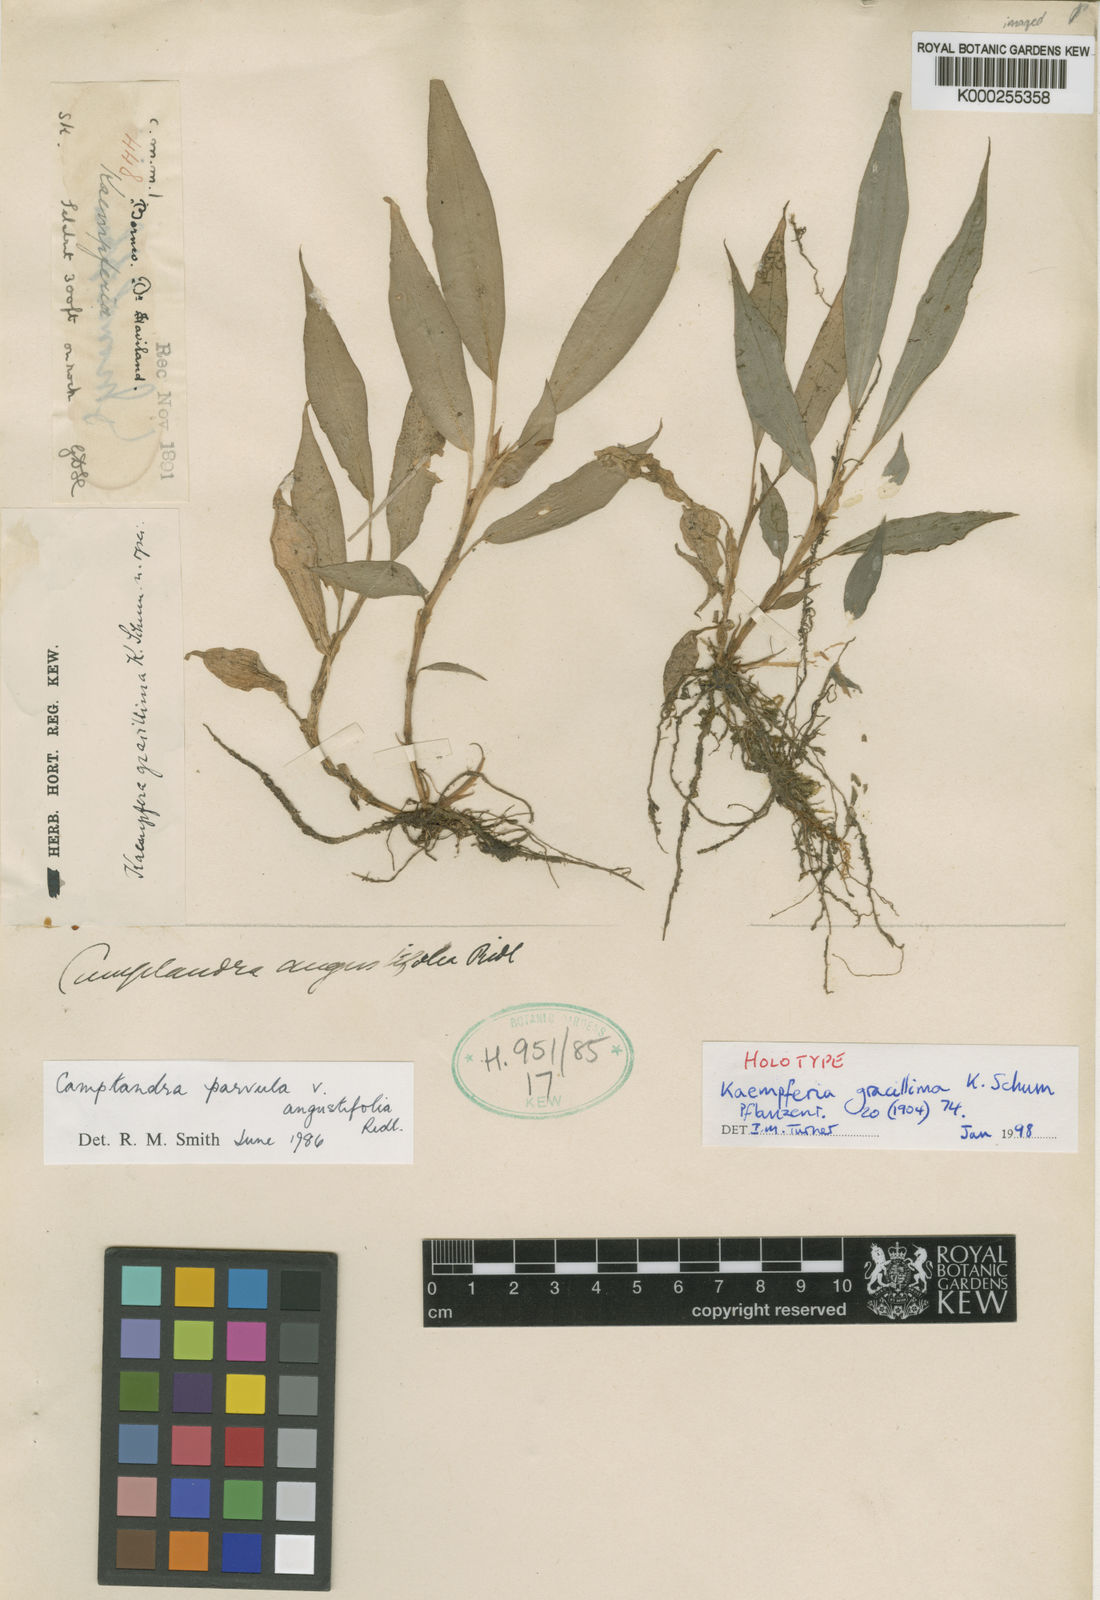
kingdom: Plantae
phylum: Tracheophyta
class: Liliopsida
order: Zingiberales
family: Zingiberaceae
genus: Camptandra
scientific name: Camptandra gracillima
